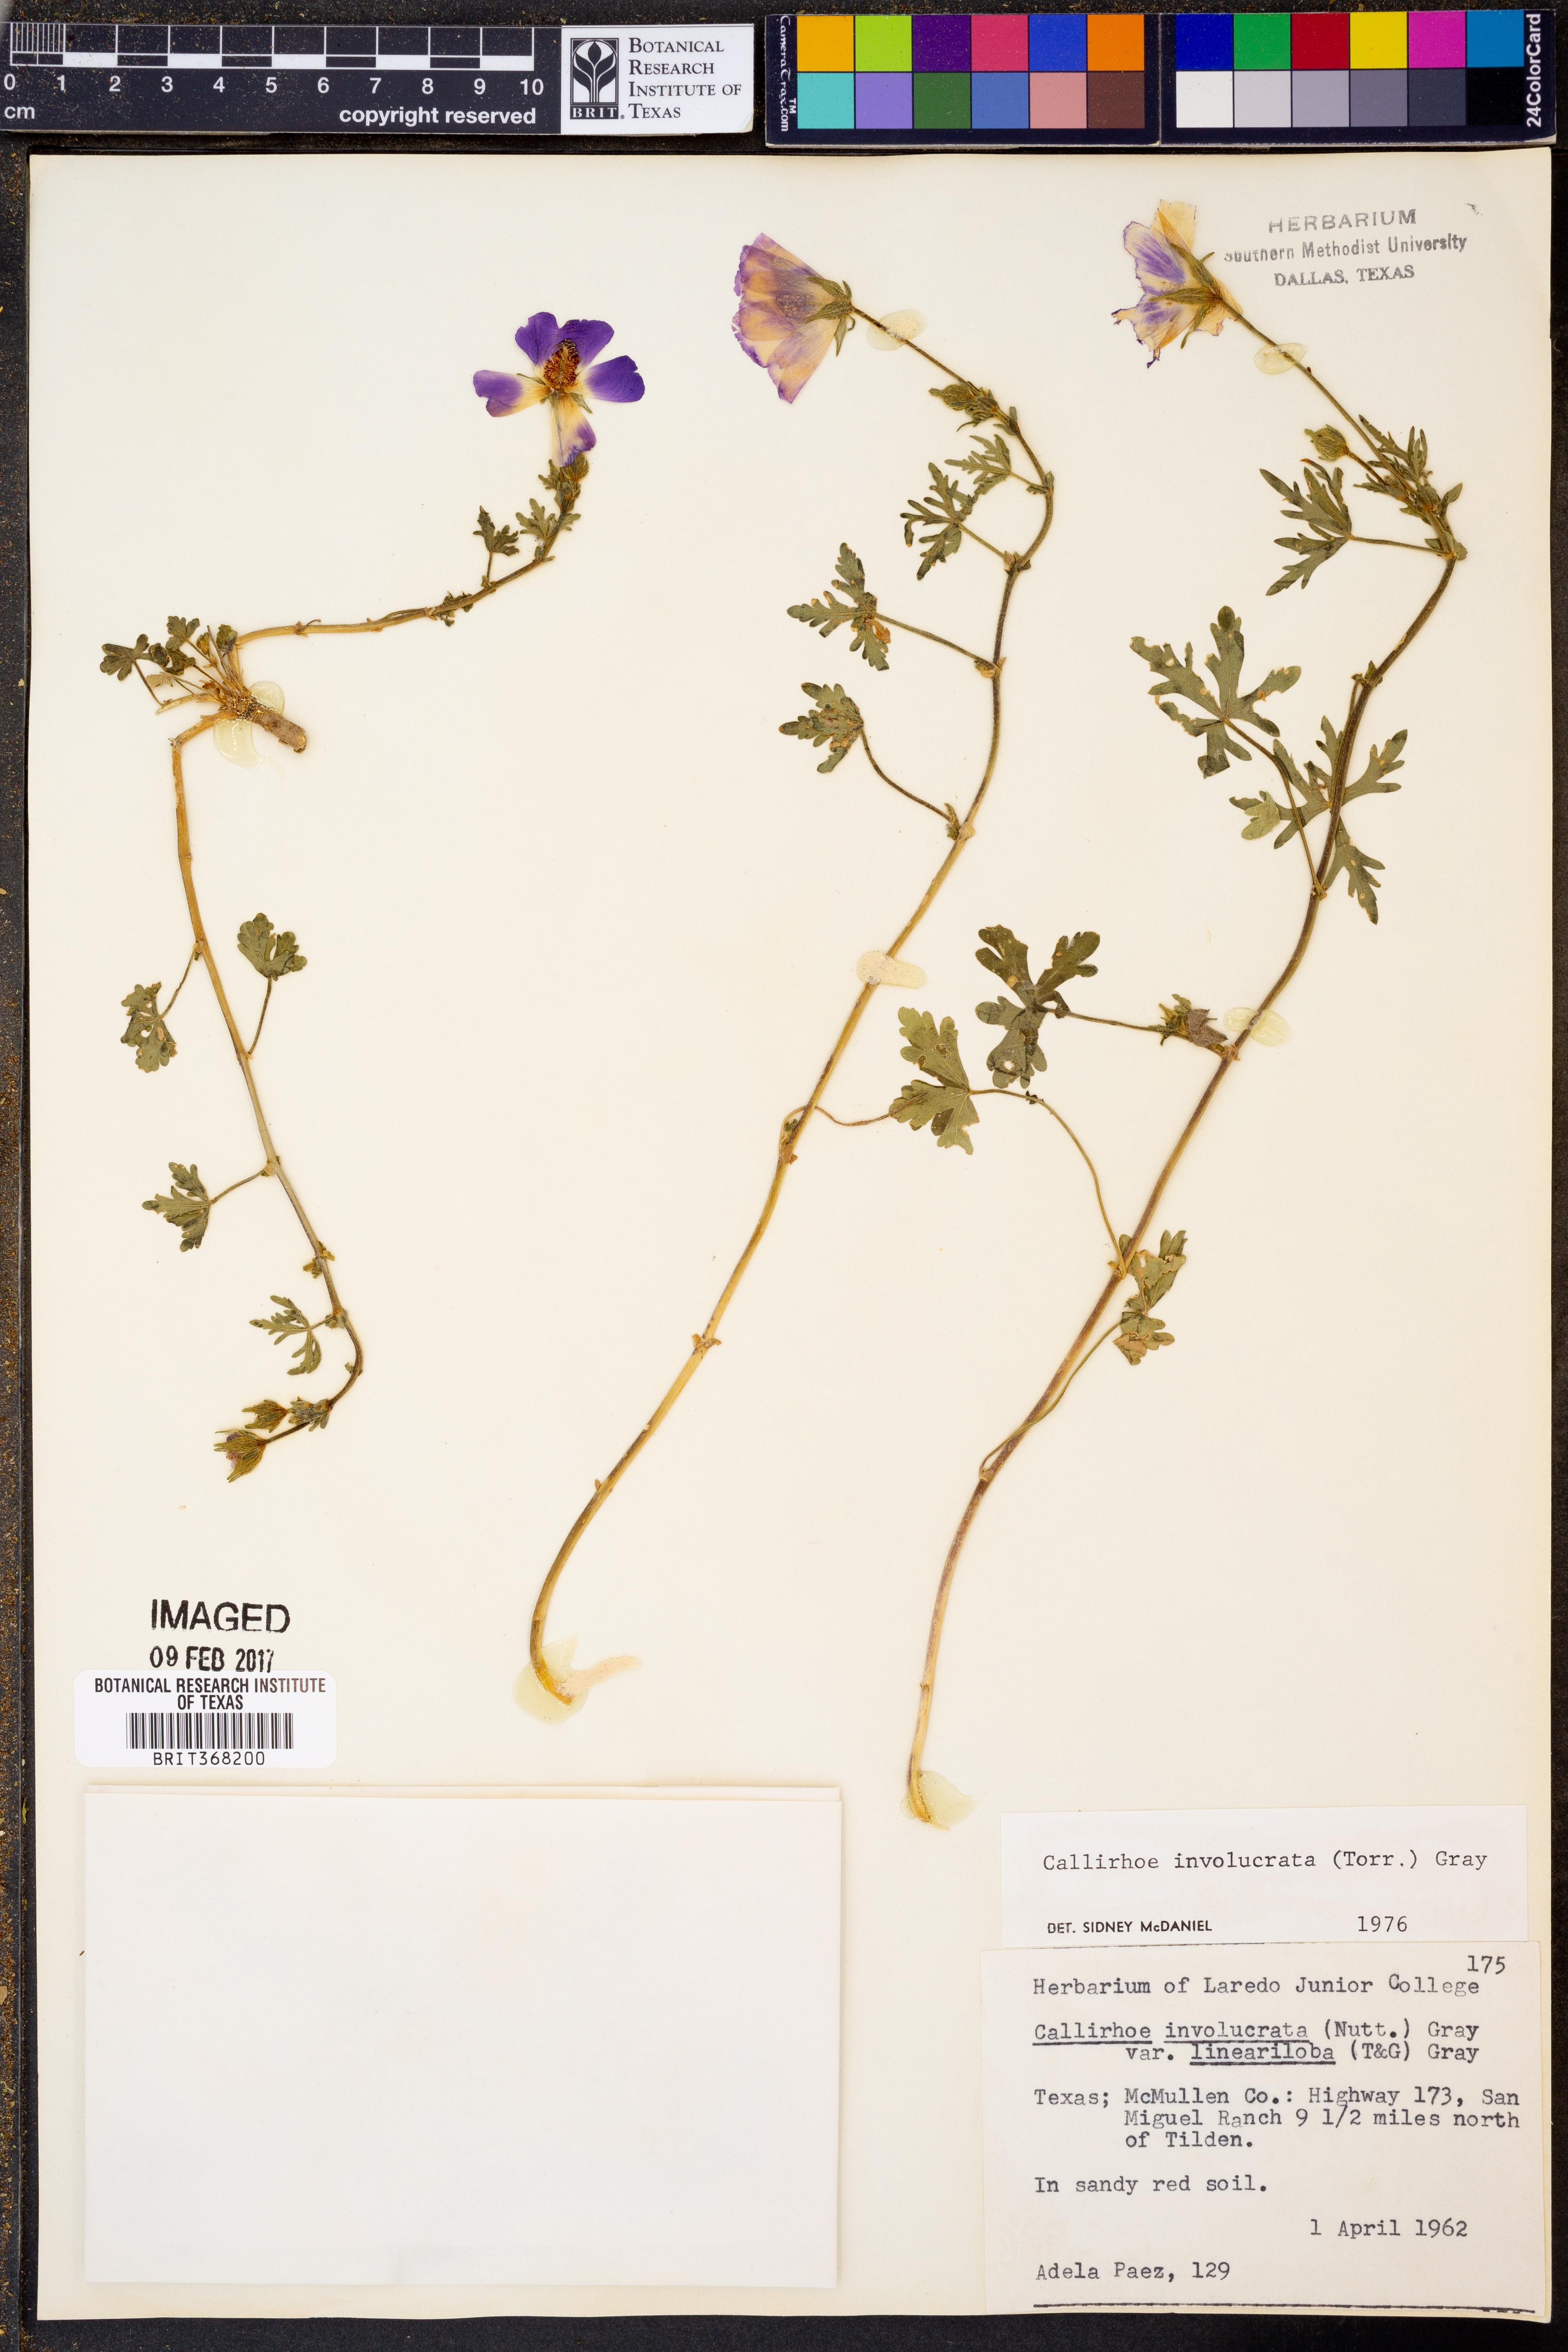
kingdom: Plantae
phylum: Tracheophyta
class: Magnoliopsida
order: Malvales
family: Malvaceae
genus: Callirhoe
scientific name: Callirhoe involucrata
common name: Purple poppy-mallow
